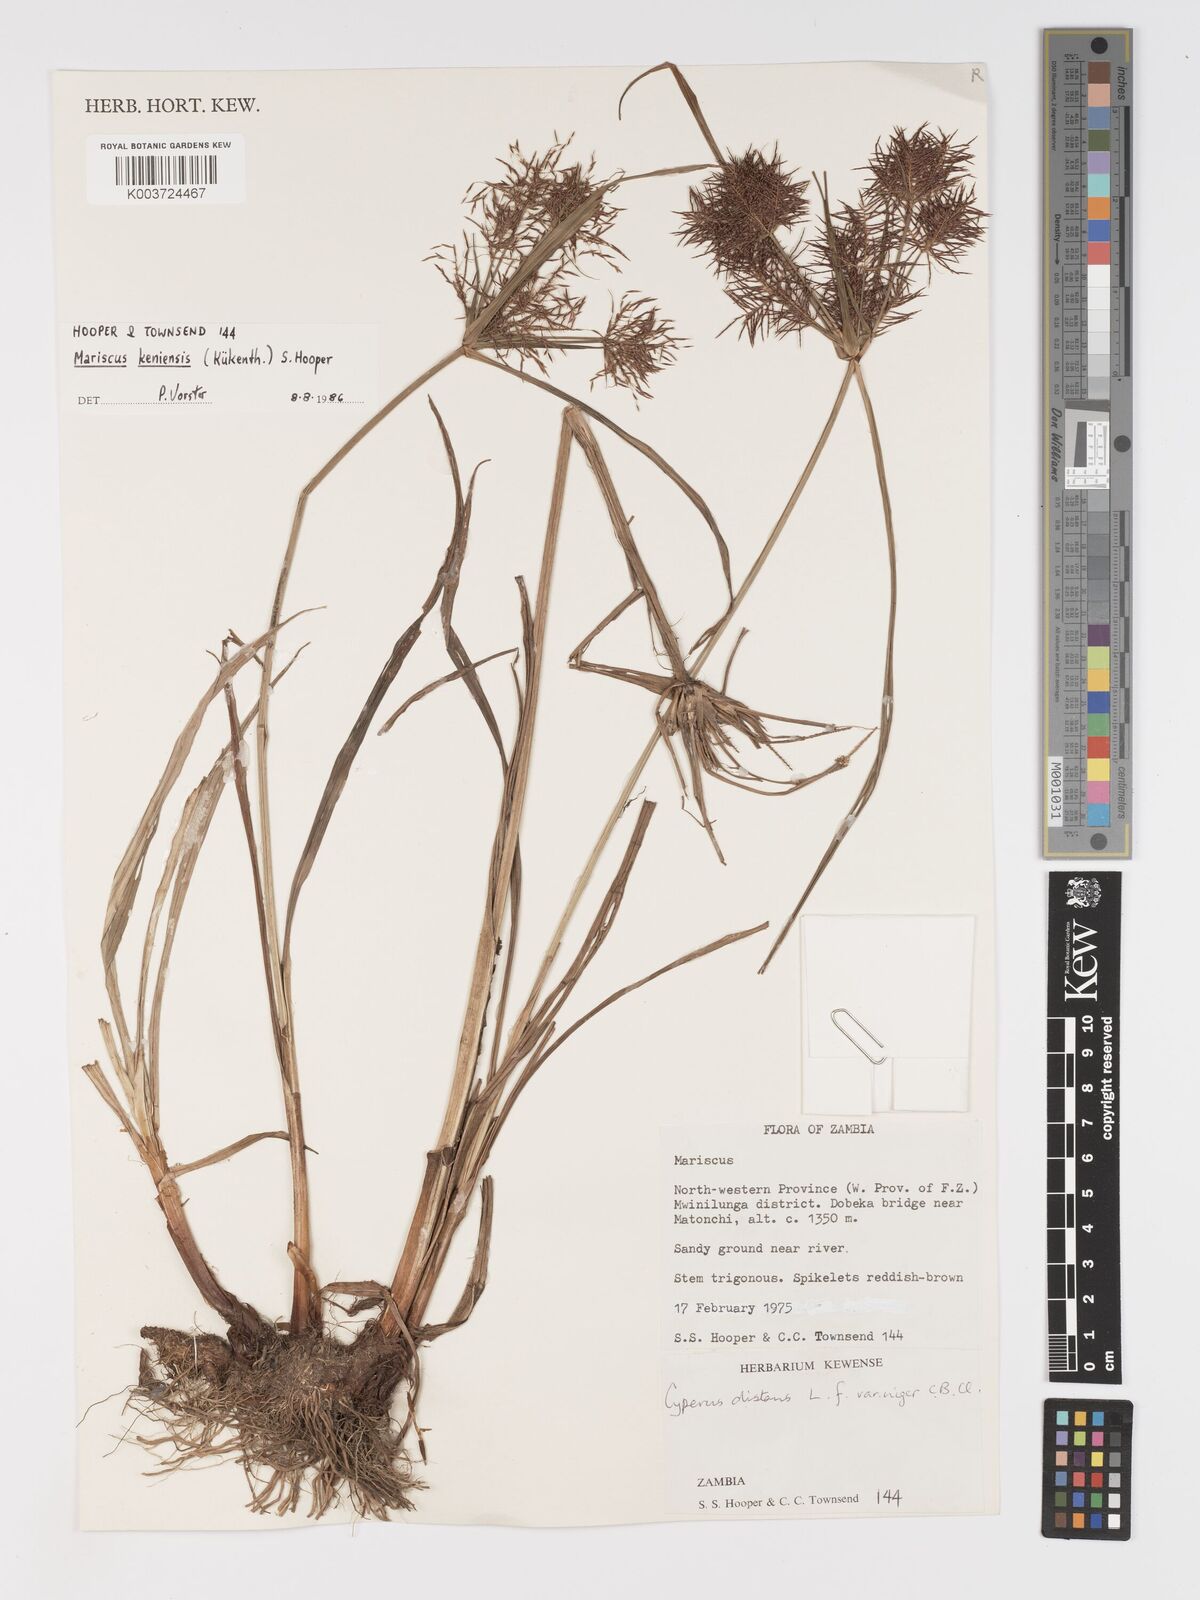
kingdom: Plantae
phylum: Tracheophyta
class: Liliopsida
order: Poales
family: Cyperaceae
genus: Cyperus
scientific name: Cyperus
